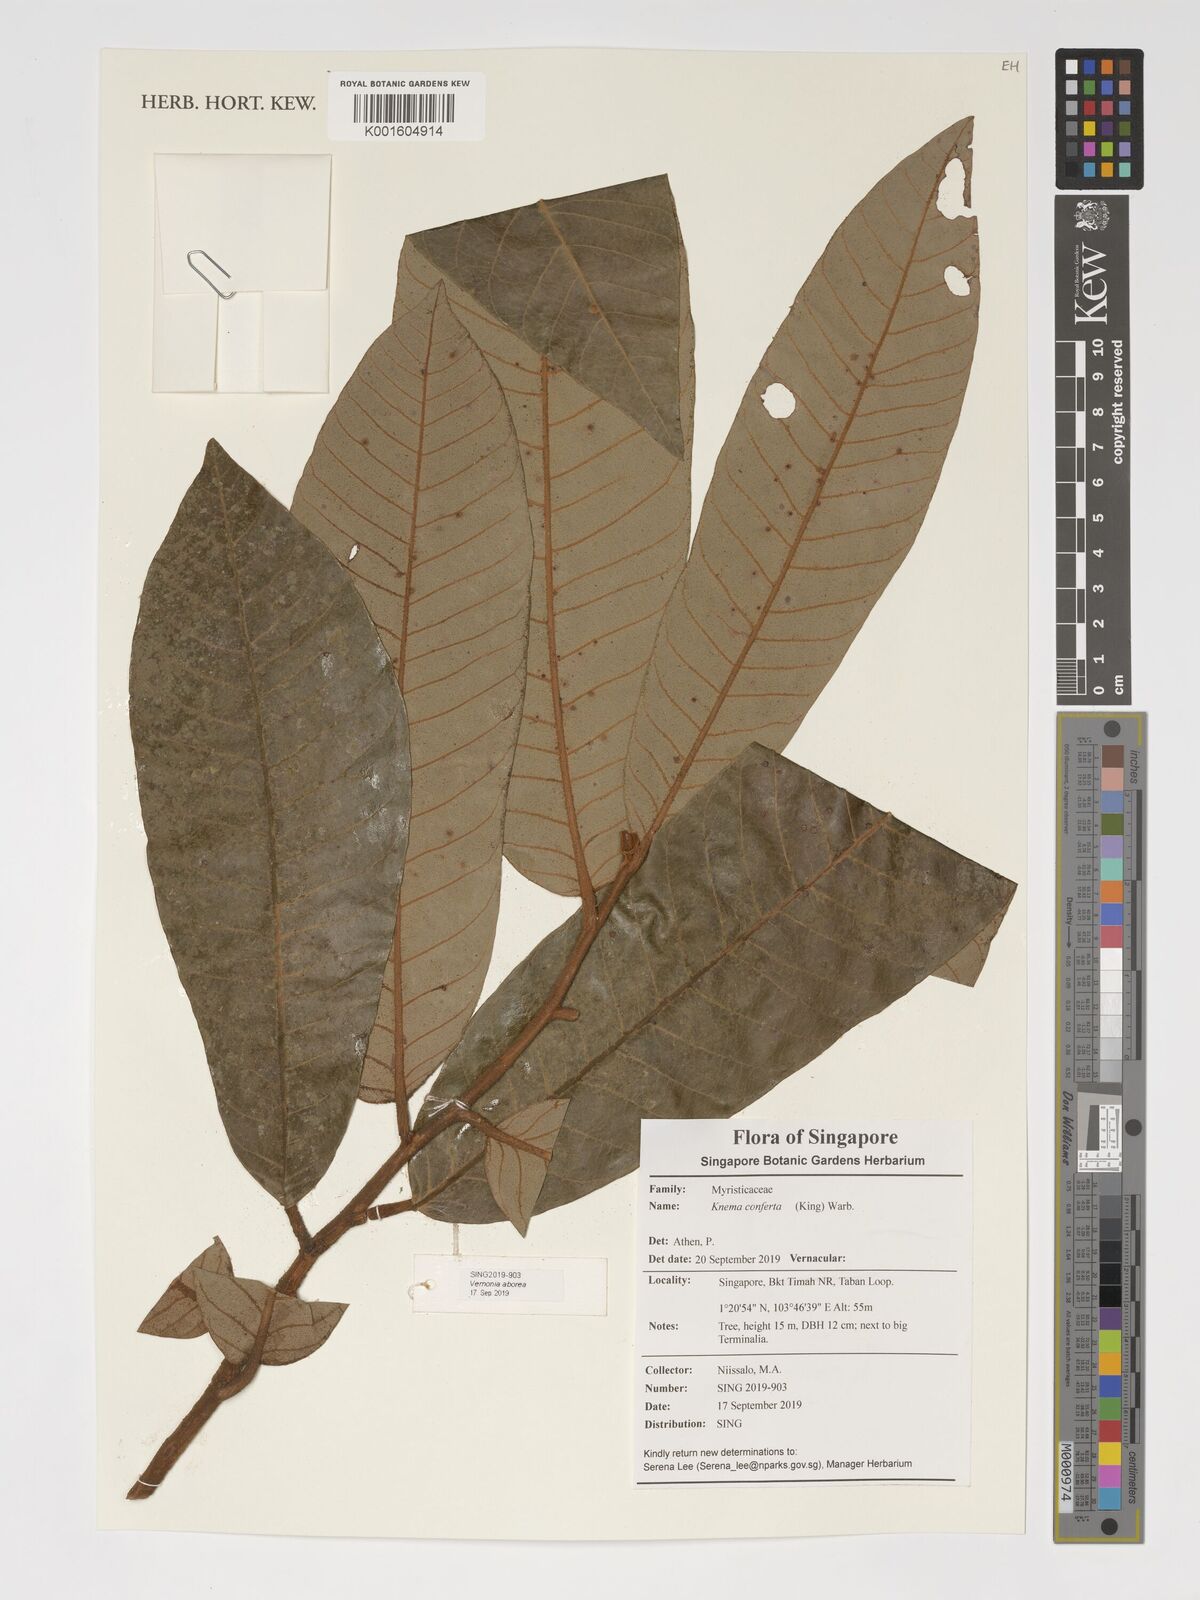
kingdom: Plantae
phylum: Tracheophyta
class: Magnoliopsida
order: Magnoliales
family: Myristicaceae
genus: Knema
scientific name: Knema conferta
